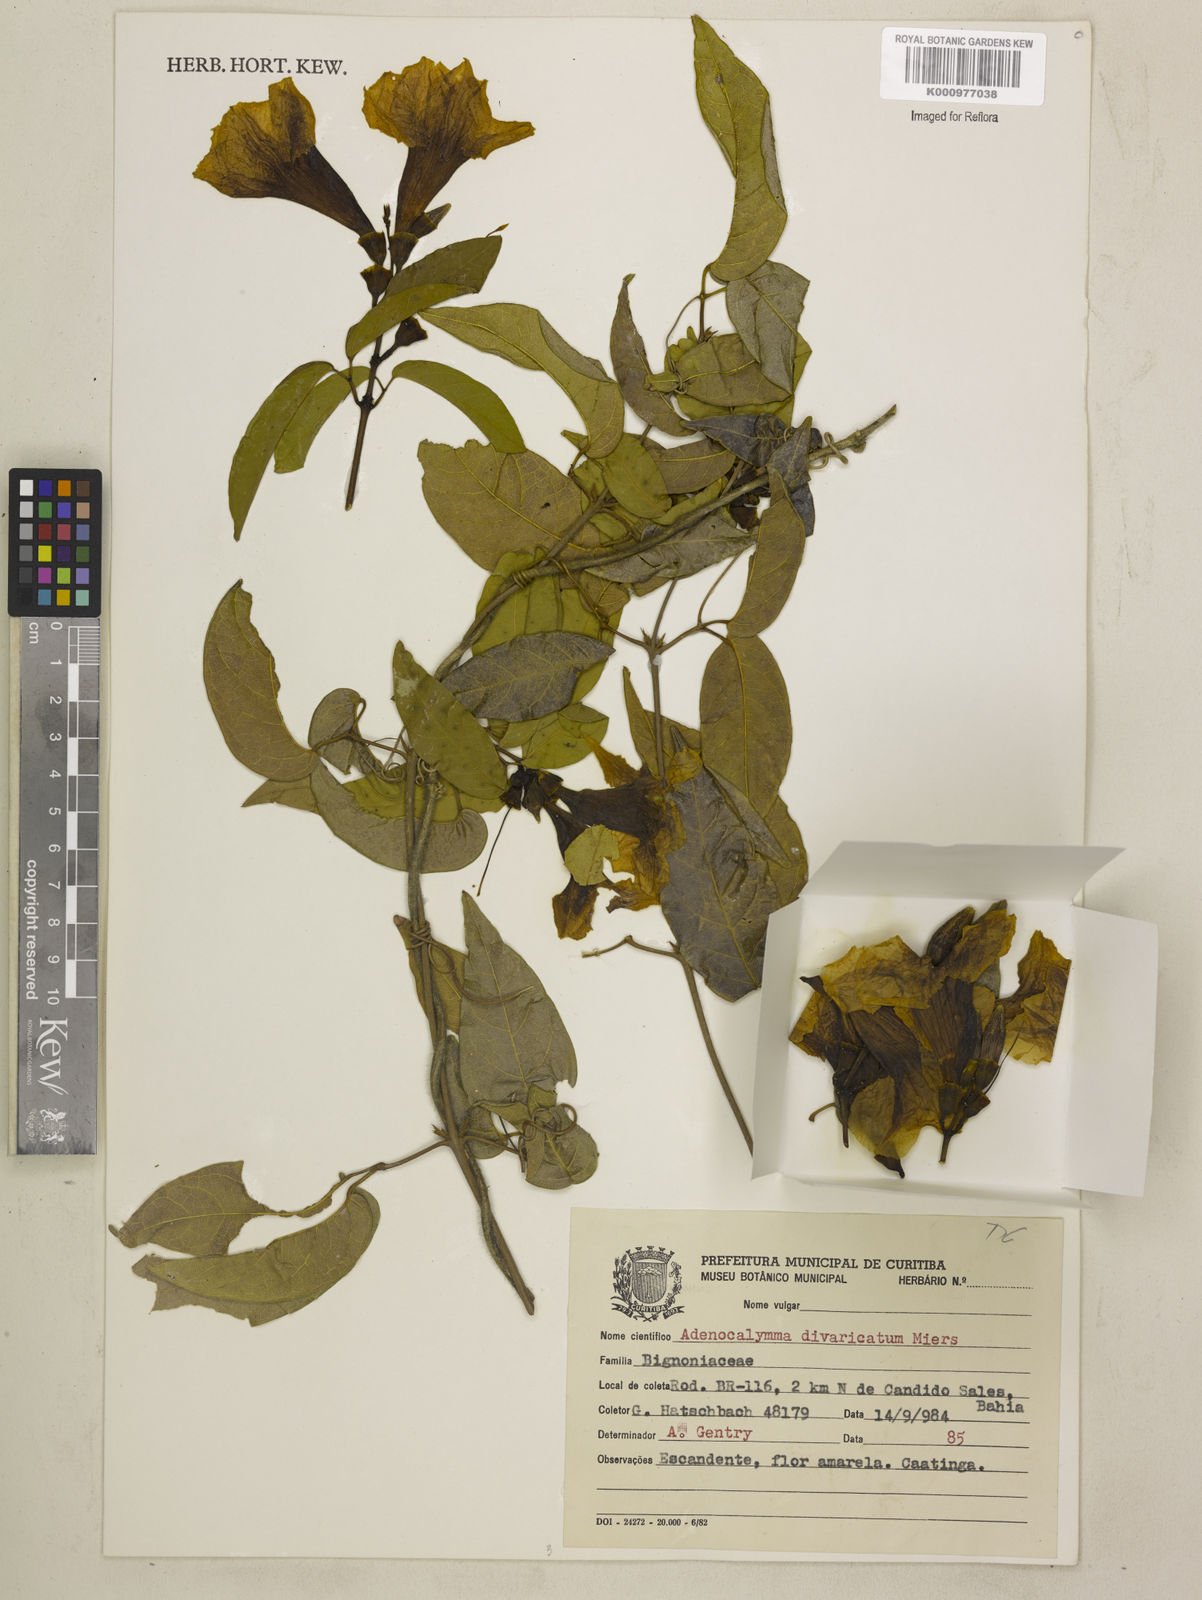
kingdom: Plantae
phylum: Tracheophyta
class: Magnoliopsida
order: Lamiales
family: Bignoniaceae
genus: Adenocalymma
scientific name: Adenocalymma divaricatum
